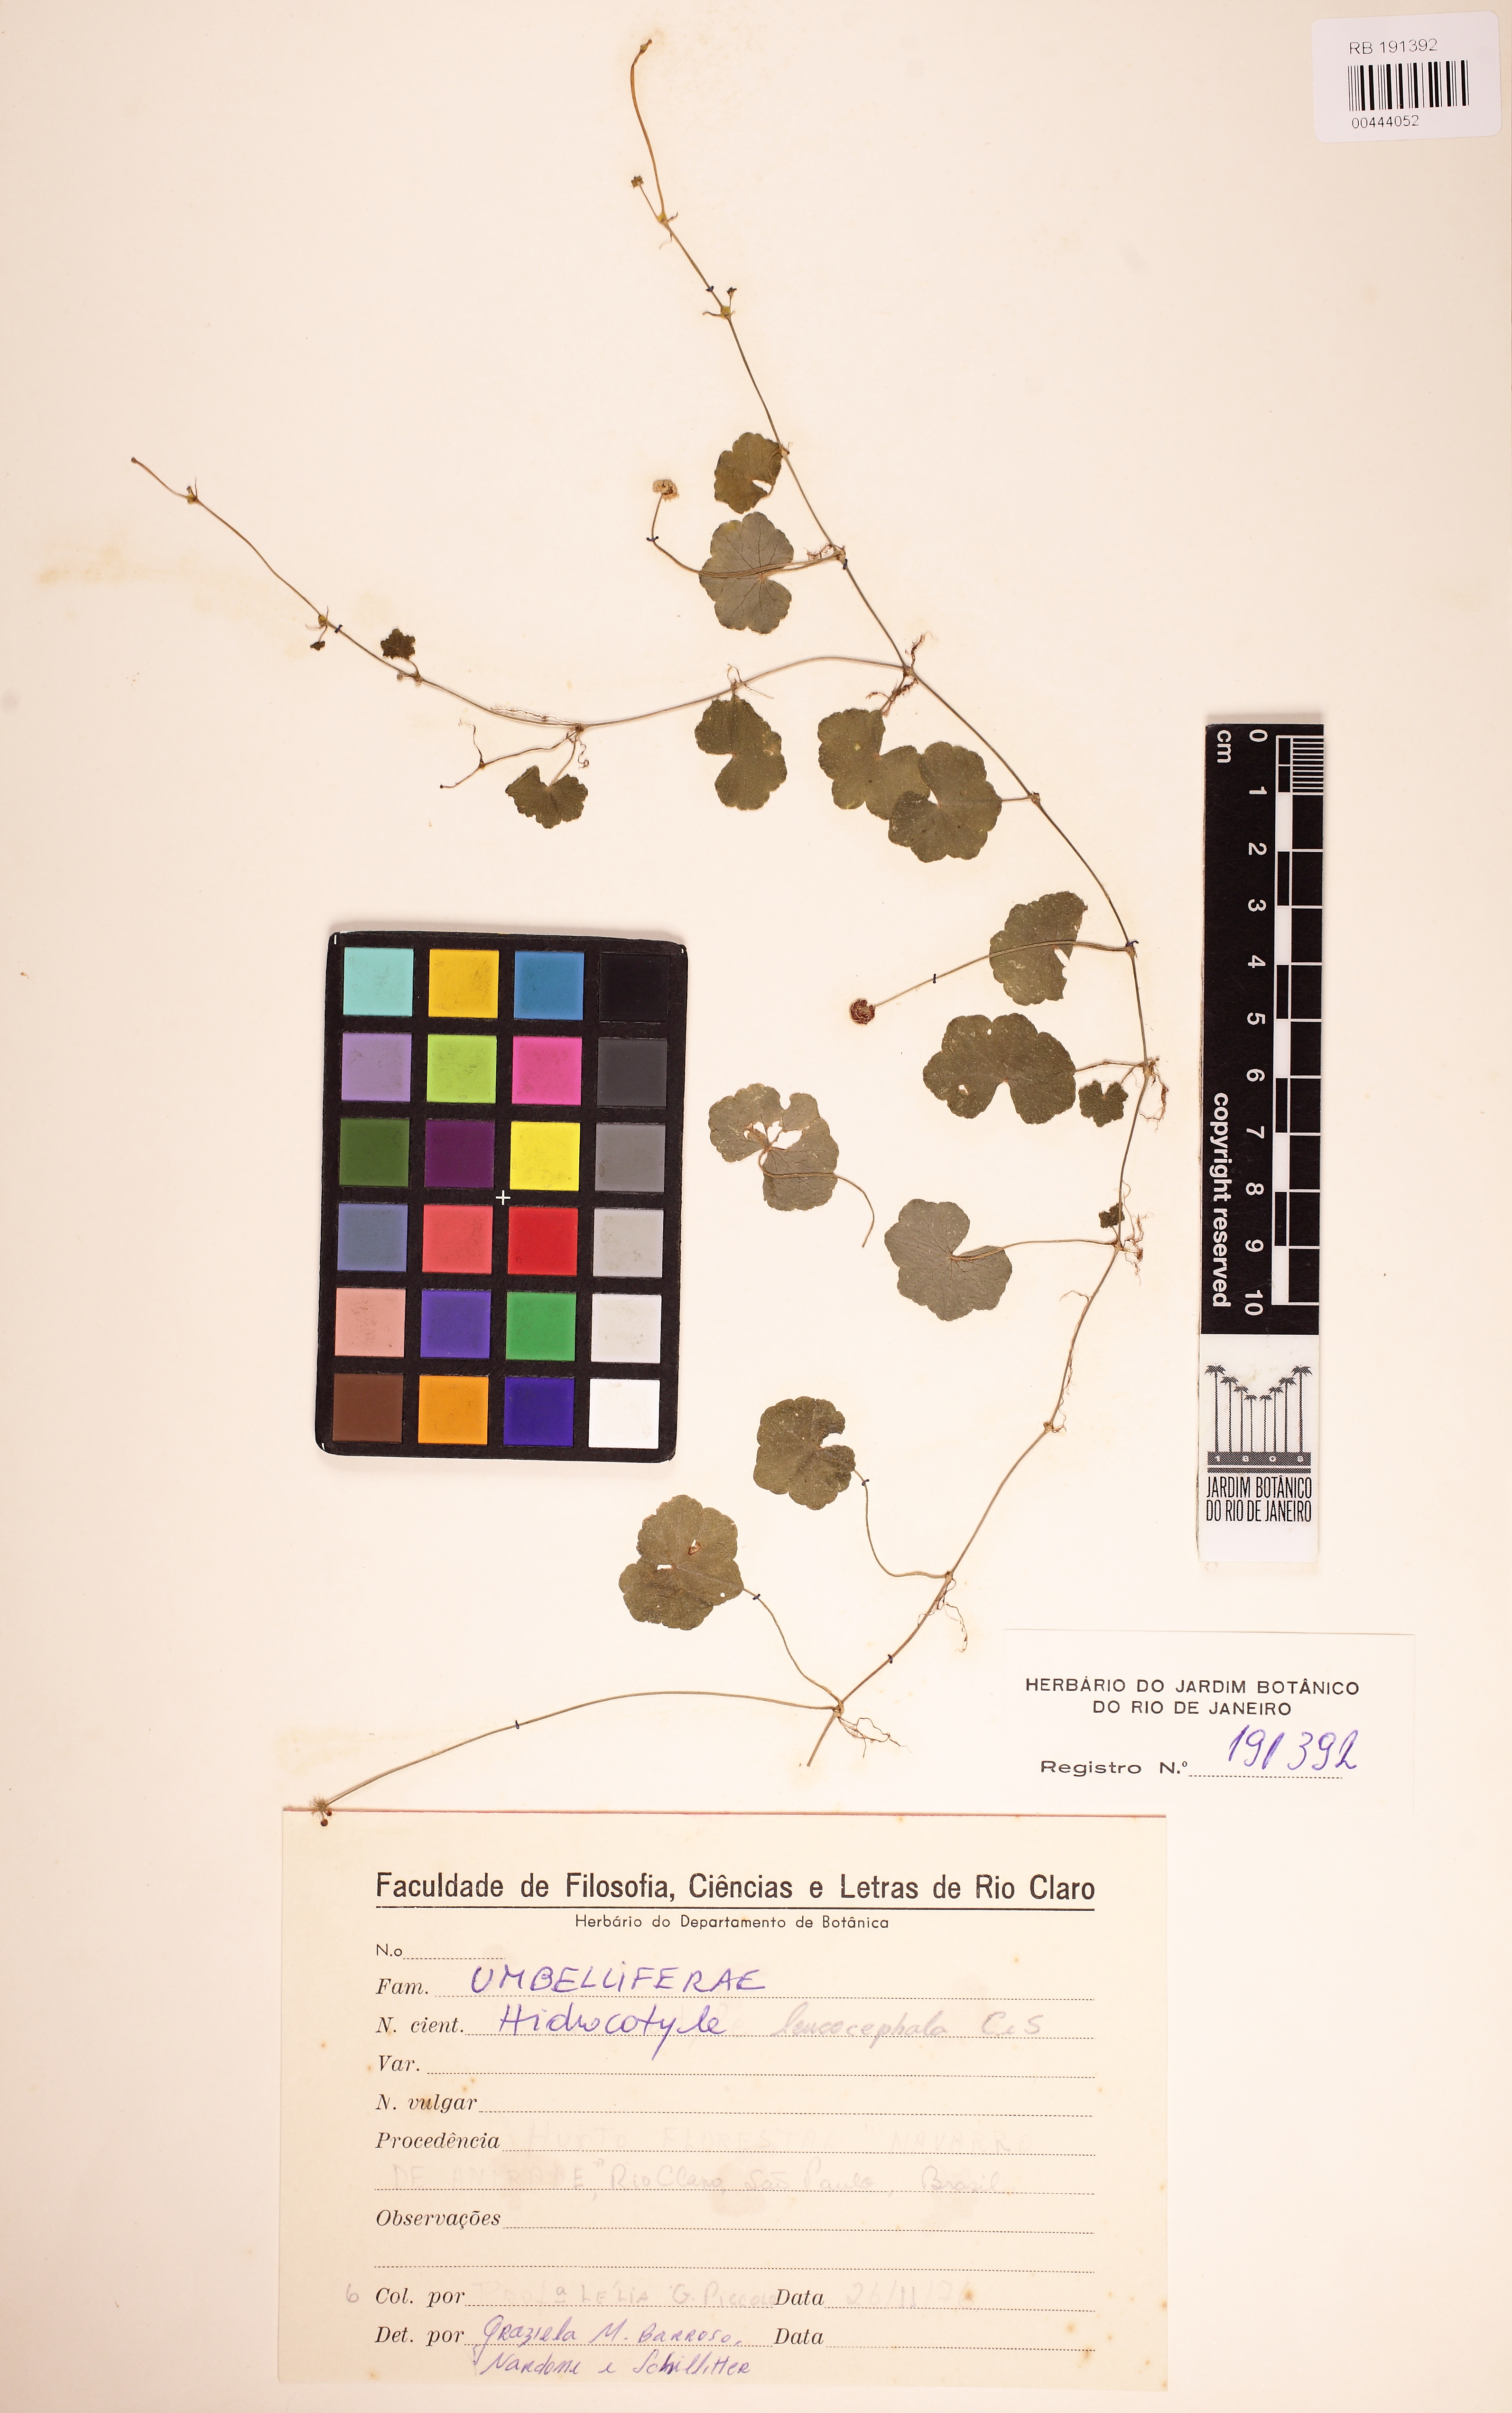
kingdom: Plantae
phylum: Tracheophyta
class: Magnoliopsida
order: Apiales
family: Araliaceae
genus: Hydrocotyle
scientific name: Hydrocotyle leucocephala
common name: Brazilian pennywort
